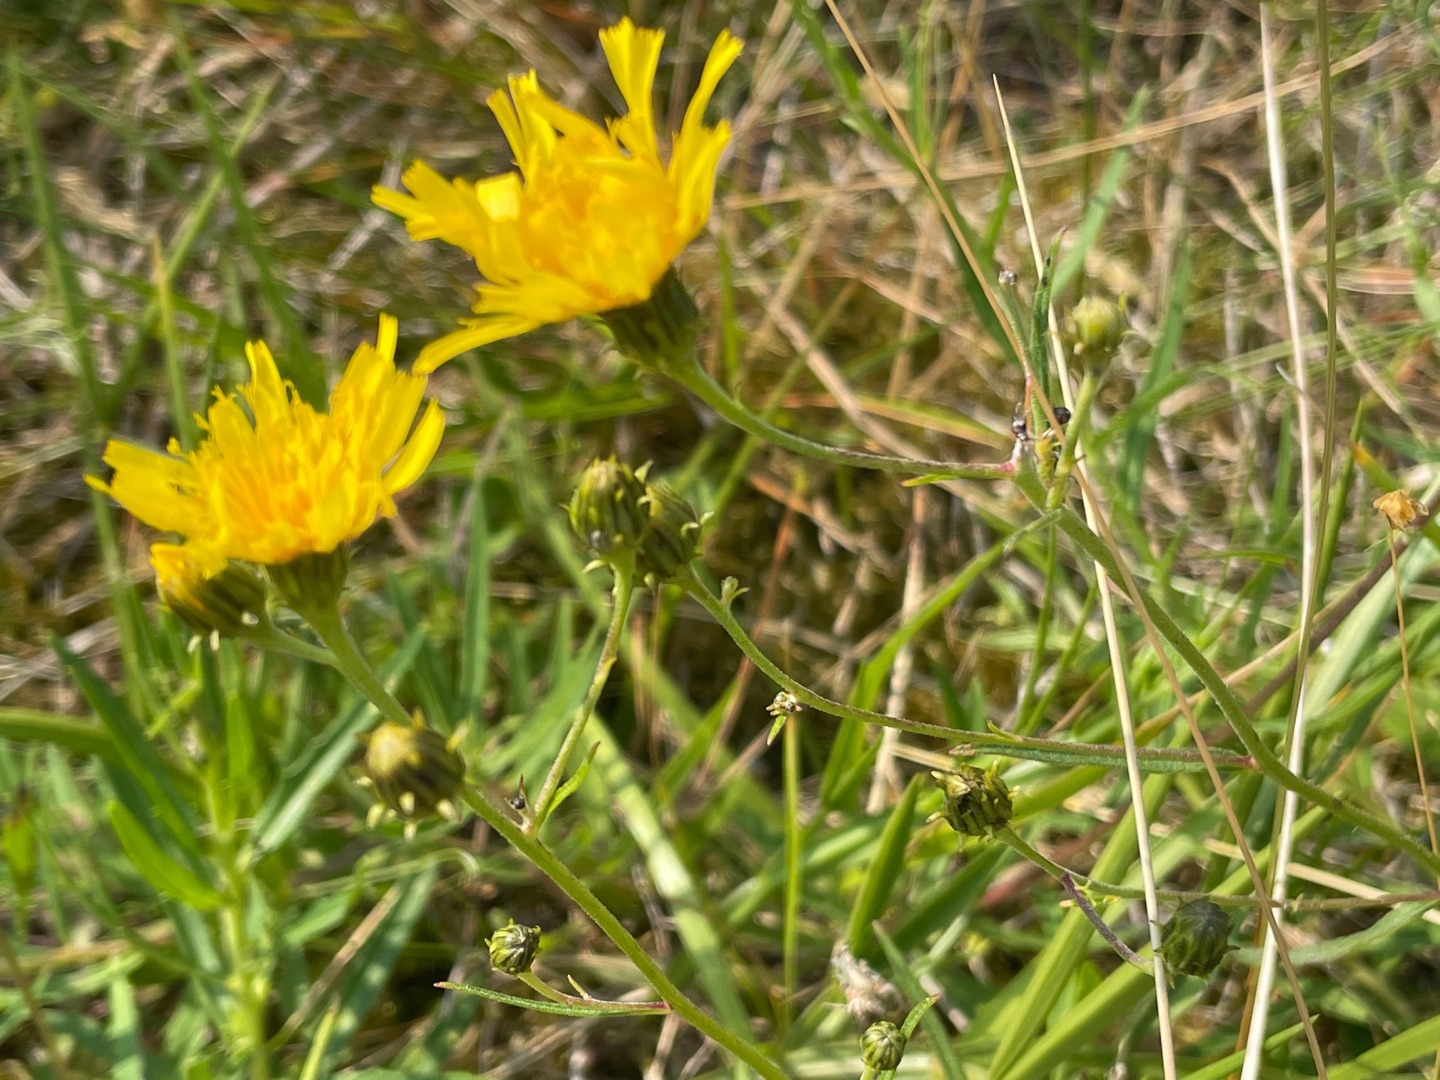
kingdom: Plantae
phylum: Tracheophyta
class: Magnoliopsida
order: Asterales
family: Asteraceae
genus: Hieracium
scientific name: Hieracium umbellatum
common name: Smalbladet høgeurt
